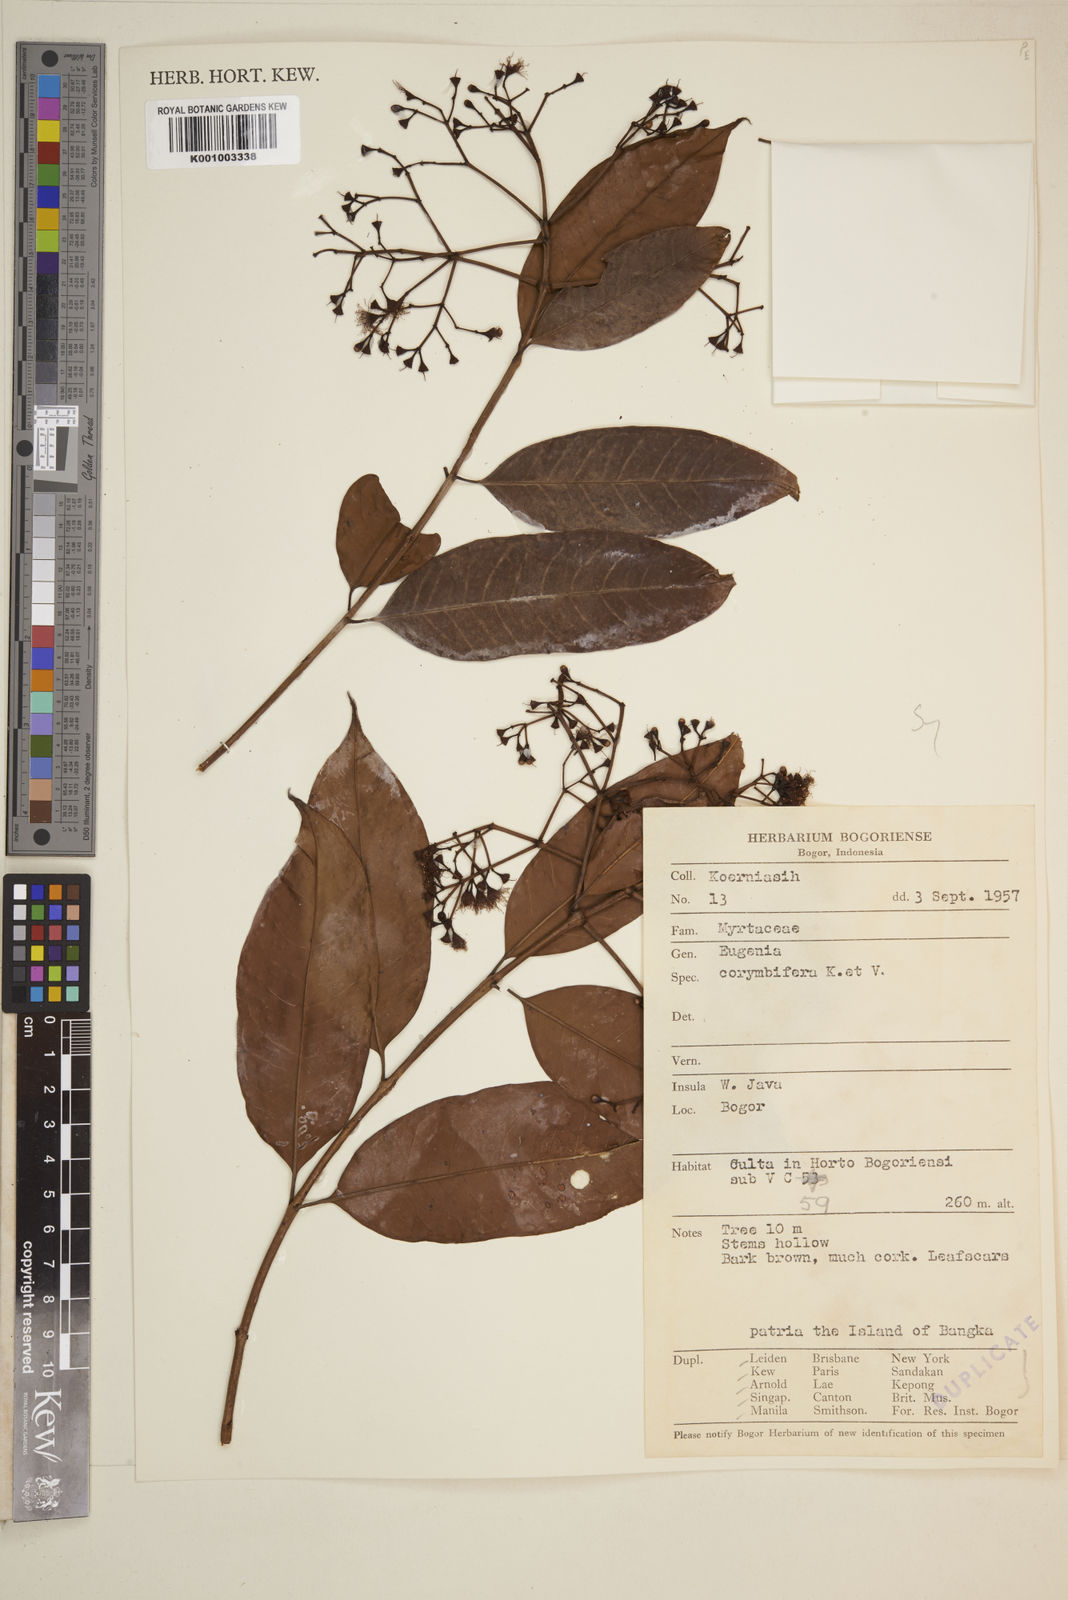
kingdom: Plantae
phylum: Tracheophyta
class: Magnoliopsida
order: Myrtales
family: Myrtaceae
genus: Syzygium
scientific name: Syzygium corymbosum
